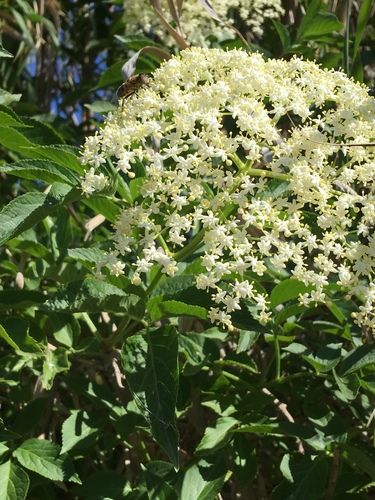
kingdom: Plantae
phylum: Tracheophyta
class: Magnoliopsida
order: Dipsacales
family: Viburnaceae
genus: Sambucus
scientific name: Sambucus nigra
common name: Elder
